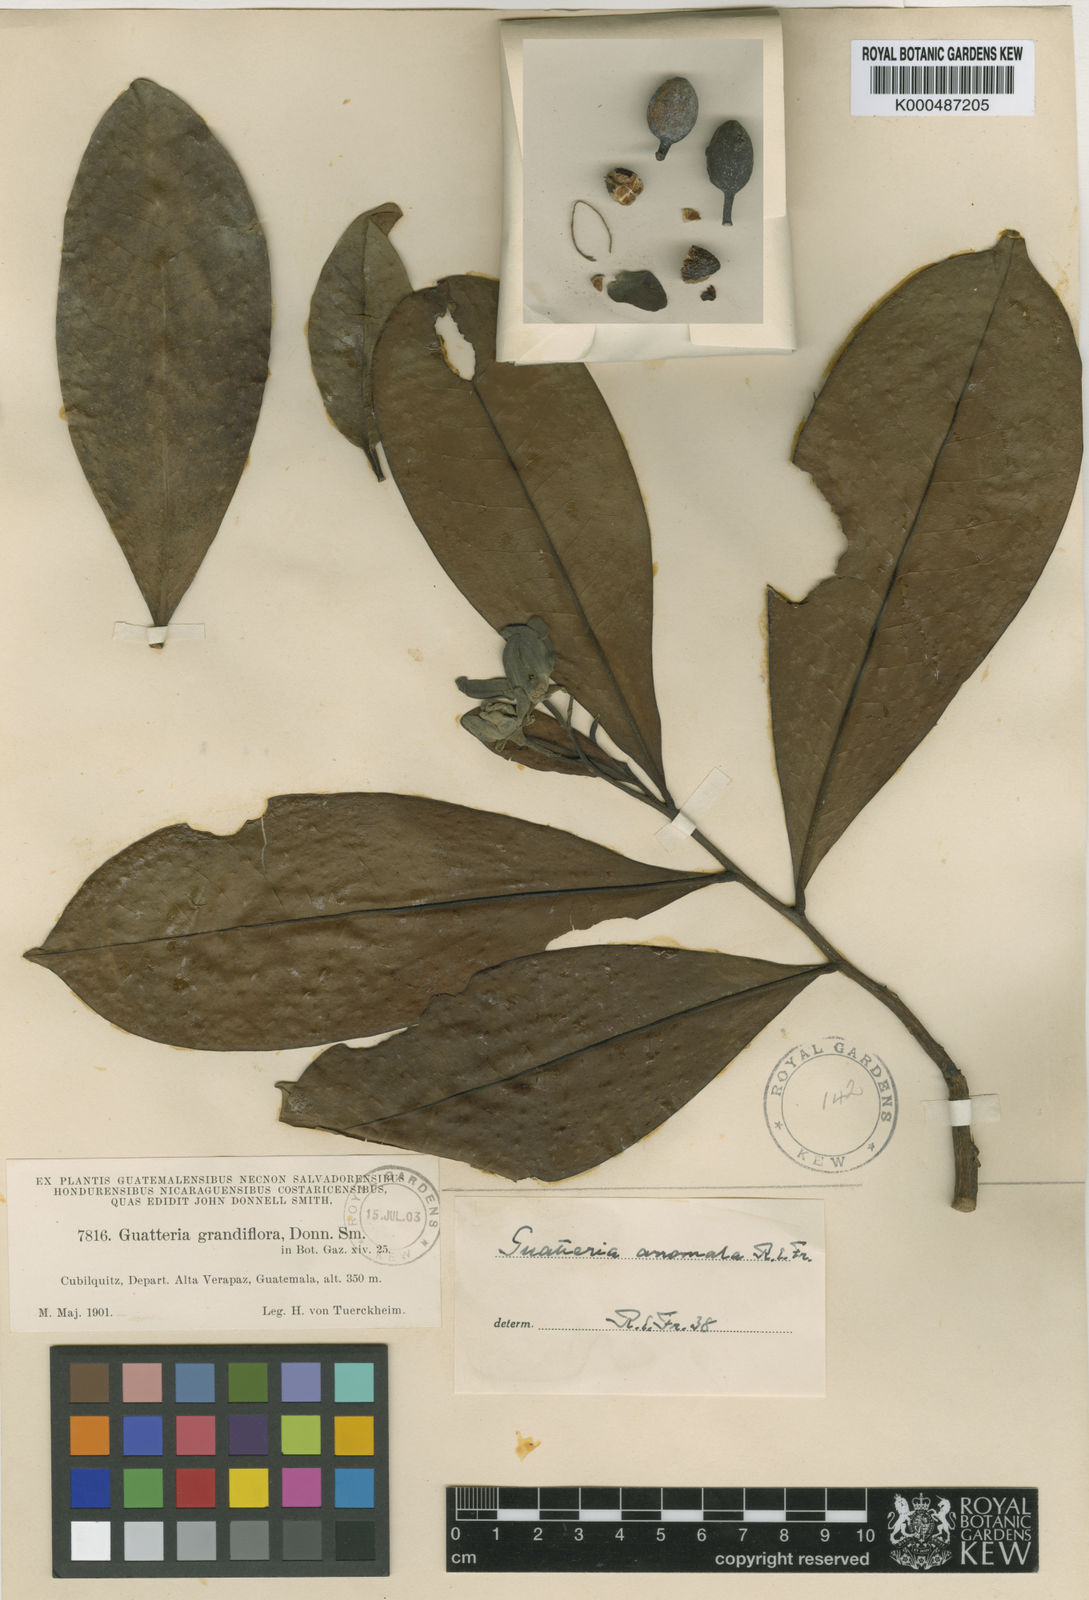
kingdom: Plantae
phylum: Tracheophyta
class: Magnoliopsida
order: Magnoliales
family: Annonaceae
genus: Guatteria
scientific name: Guatteria grandiflora
